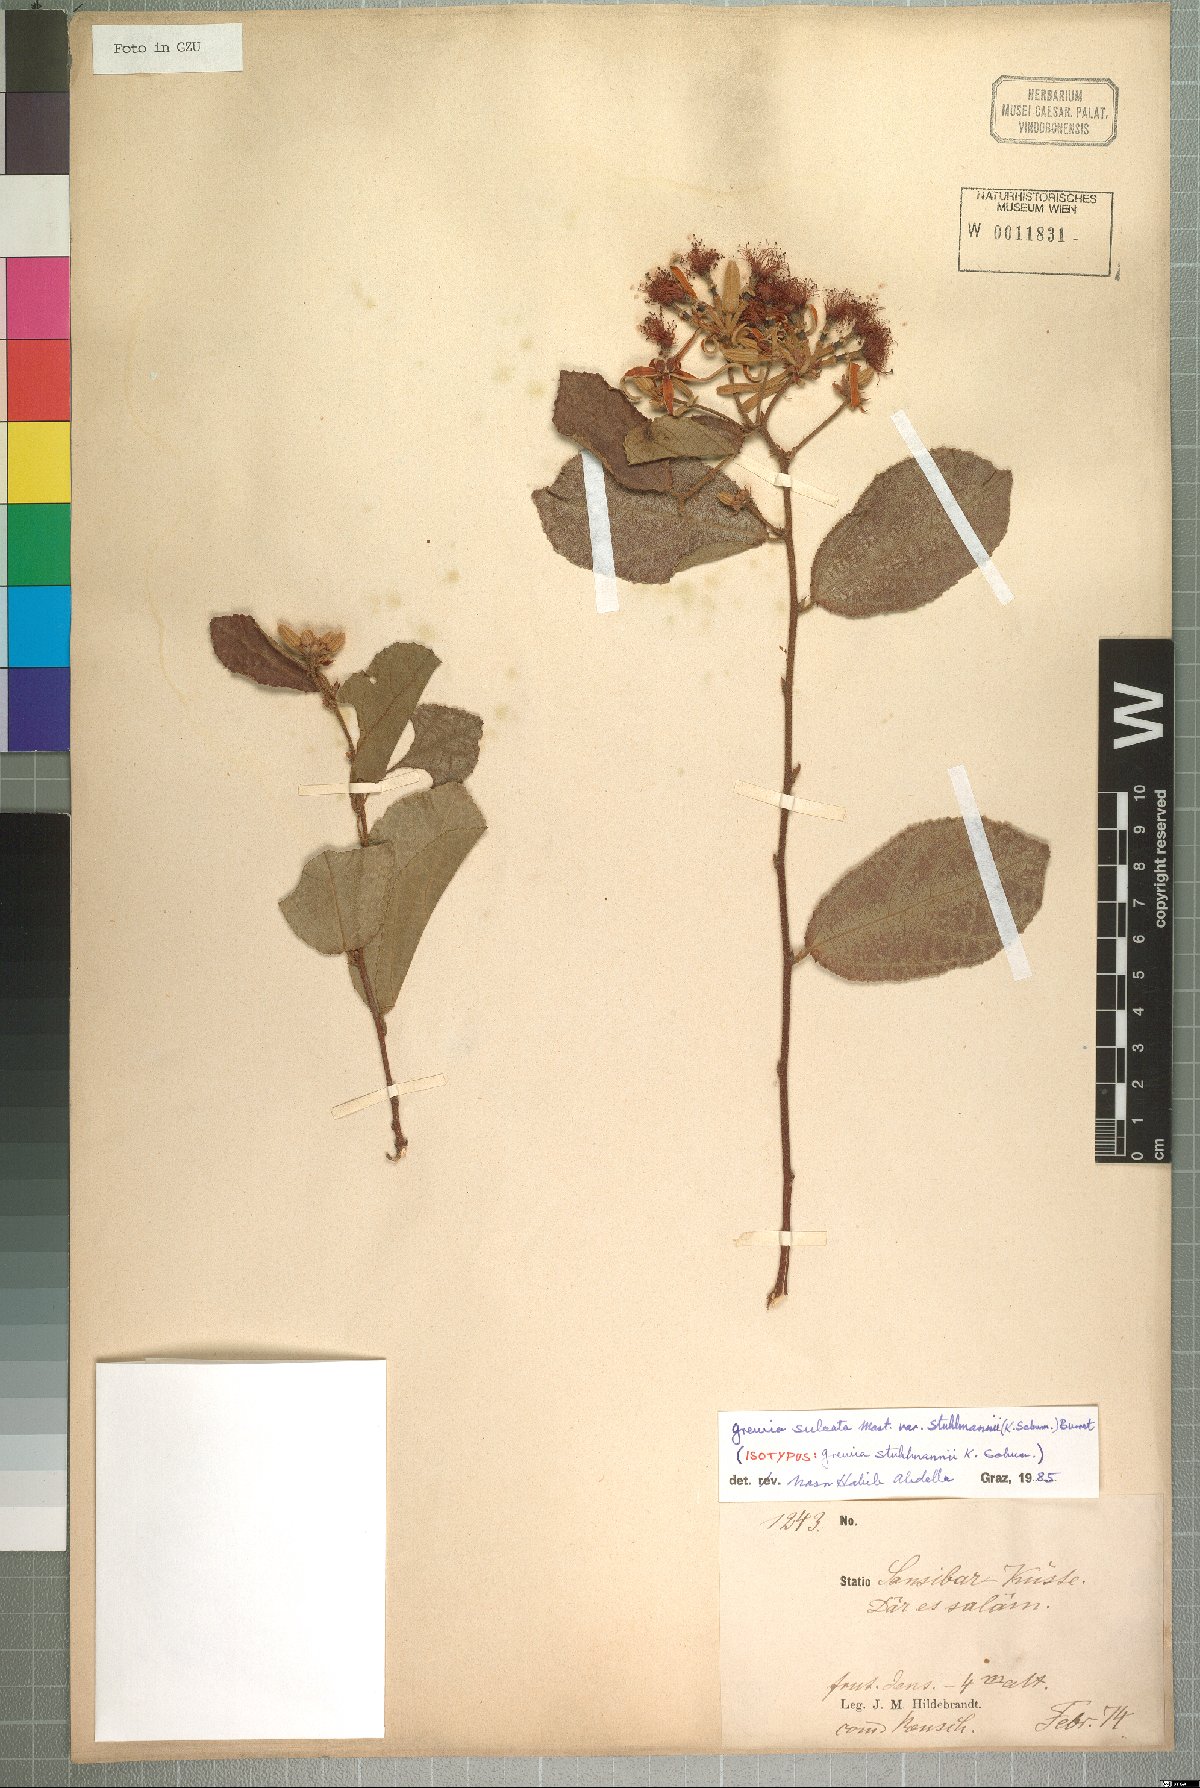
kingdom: Plantae
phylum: Tracheophyta
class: Magnoliopsida
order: Malvales
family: Malvaceae
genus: Grewia
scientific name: Grewia stuhlmannii
